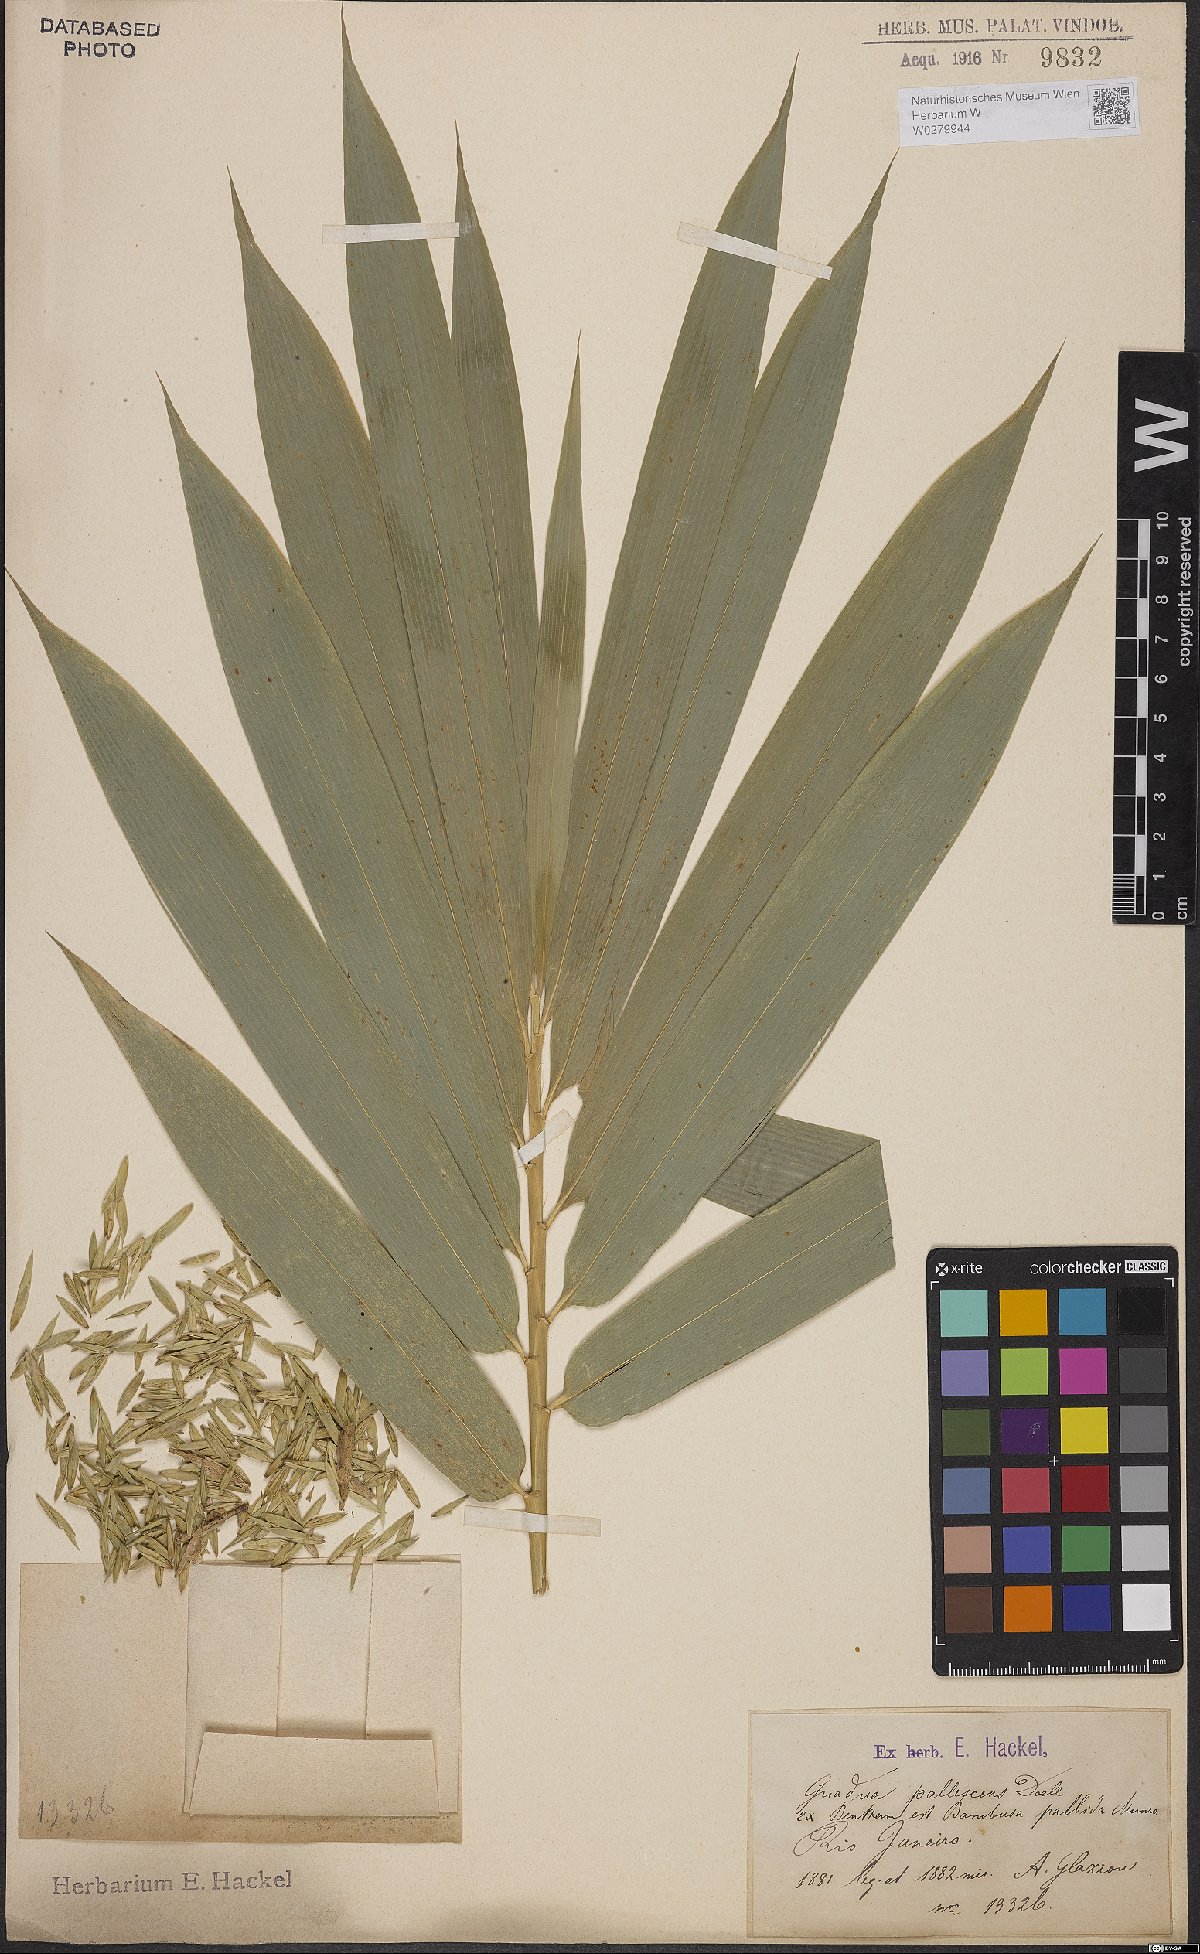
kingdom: Plantae
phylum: Tracheophyta
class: Liliopsida
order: Poales
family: Poaceae
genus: Bambusa
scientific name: Bambusa tuldoides
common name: Verdant bamboo
